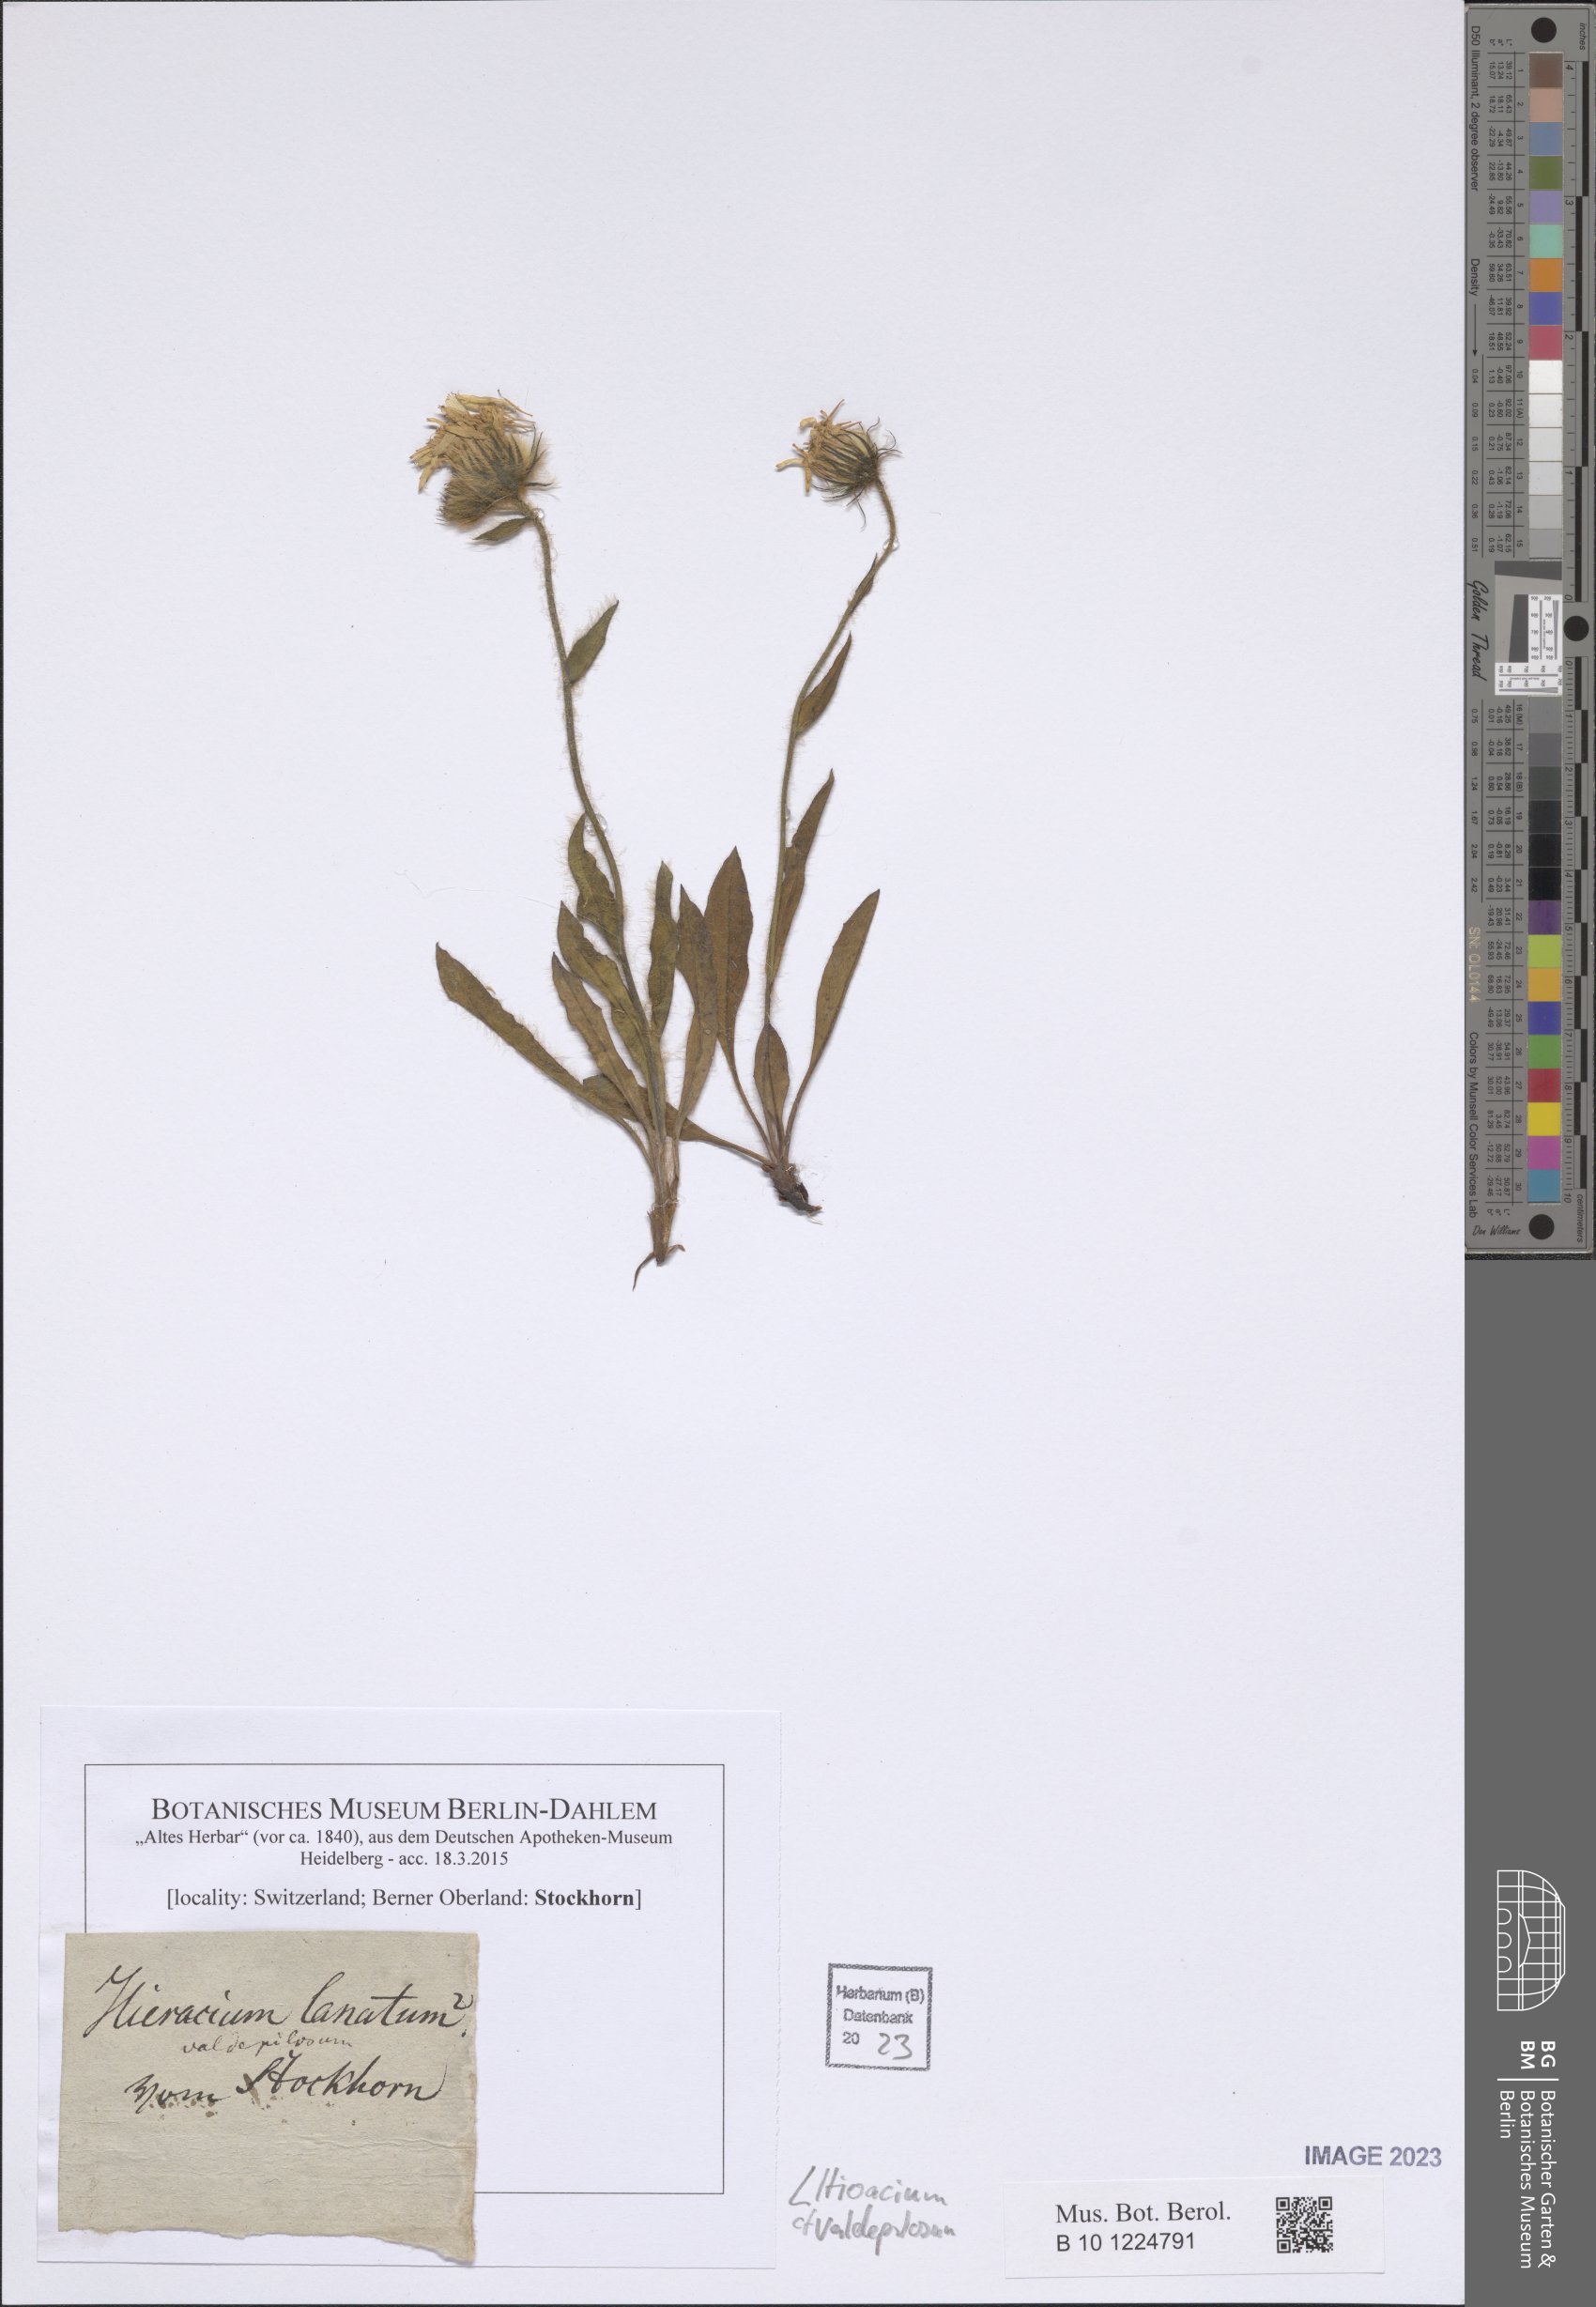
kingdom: Plantae
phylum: Tracheophyta
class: Magnoliopsida
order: Asterales
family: Asteraceae
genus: Hieracium
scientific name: Hieracium valdepilosum
